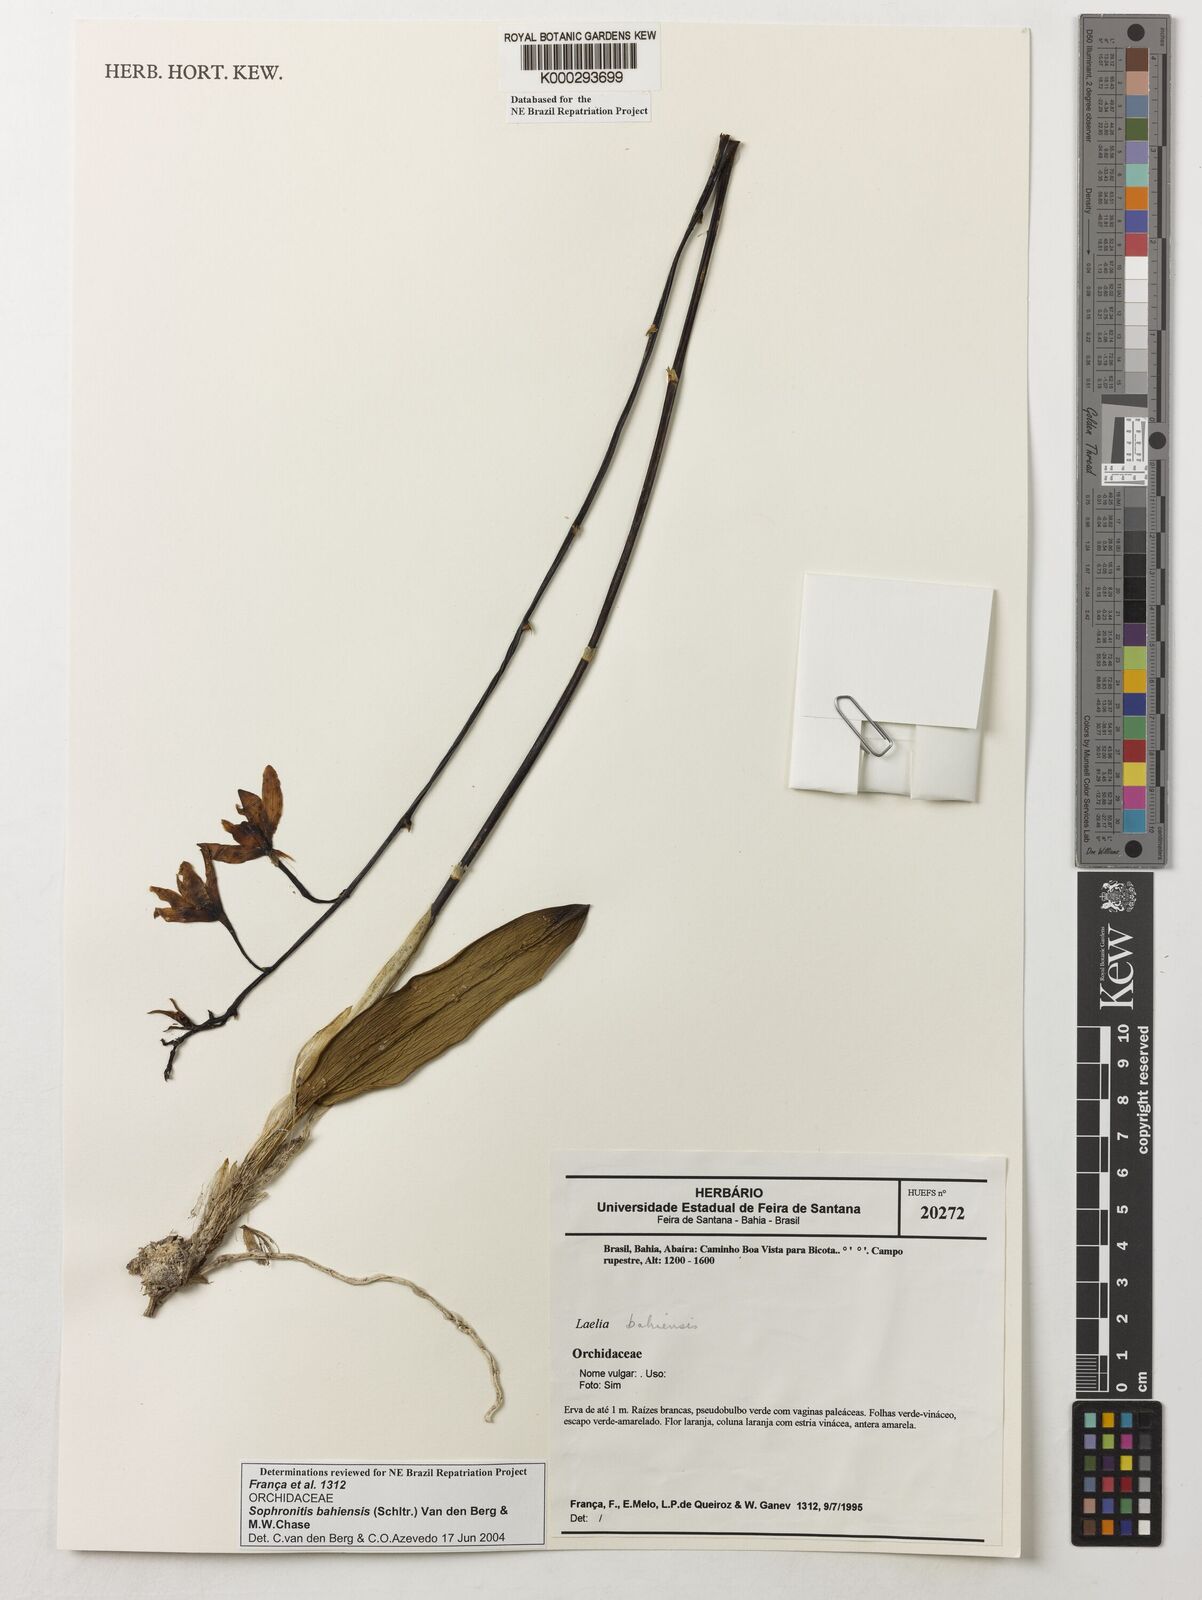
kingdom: Plantae
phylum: Tracheophyta
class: Liliopsida
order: Asparagales
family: Orchidaceae
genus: Cattleya
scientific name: Cattleya luetzelburgii
